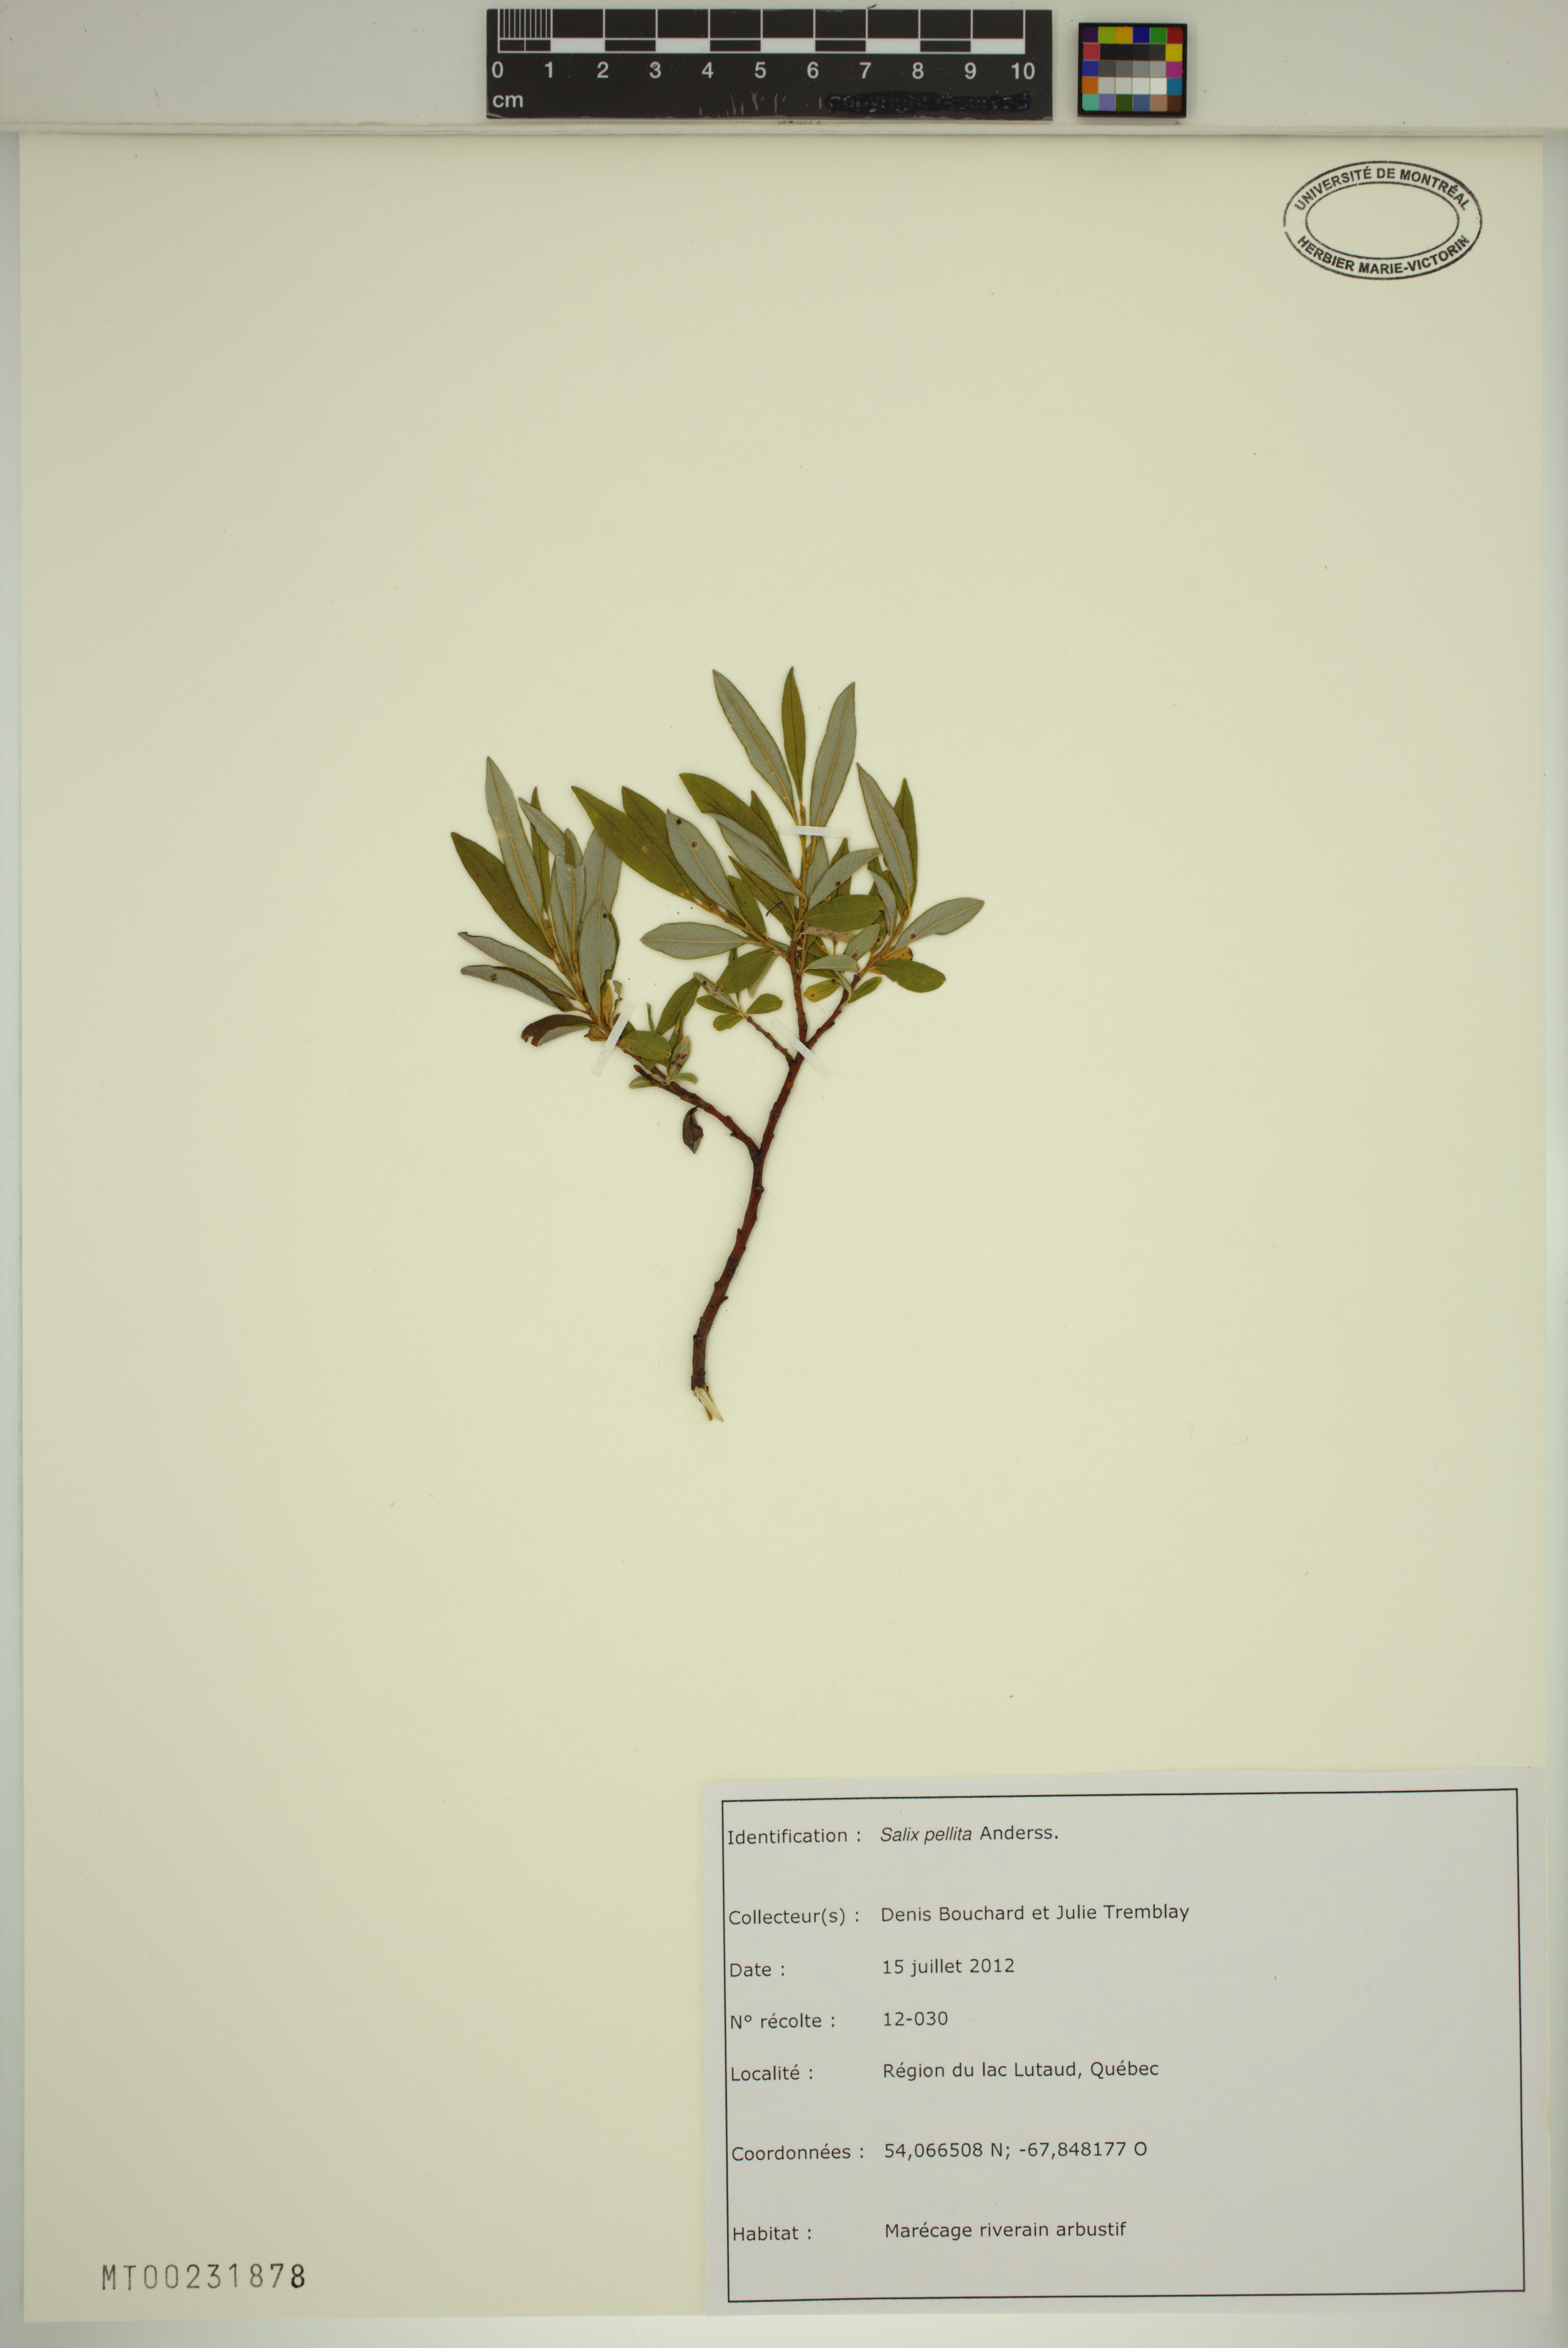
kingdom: Plantae
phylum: Tracheophyta
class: Magnoliopsida
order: Malpighiales
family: Salicaceae
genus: Salix
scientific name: Salix pellita
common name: Satiny willow
